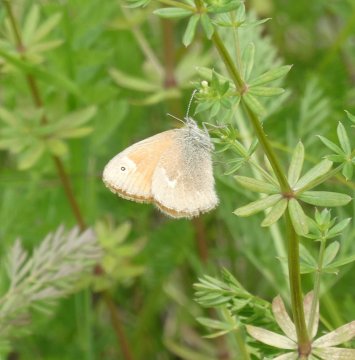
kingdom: Animalia
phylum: Arthropoda
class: Insecta
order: Lepidoptera
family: Nymphalidae
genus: Coenonympha
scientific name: Coenonympha tullia
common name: Large Heath
